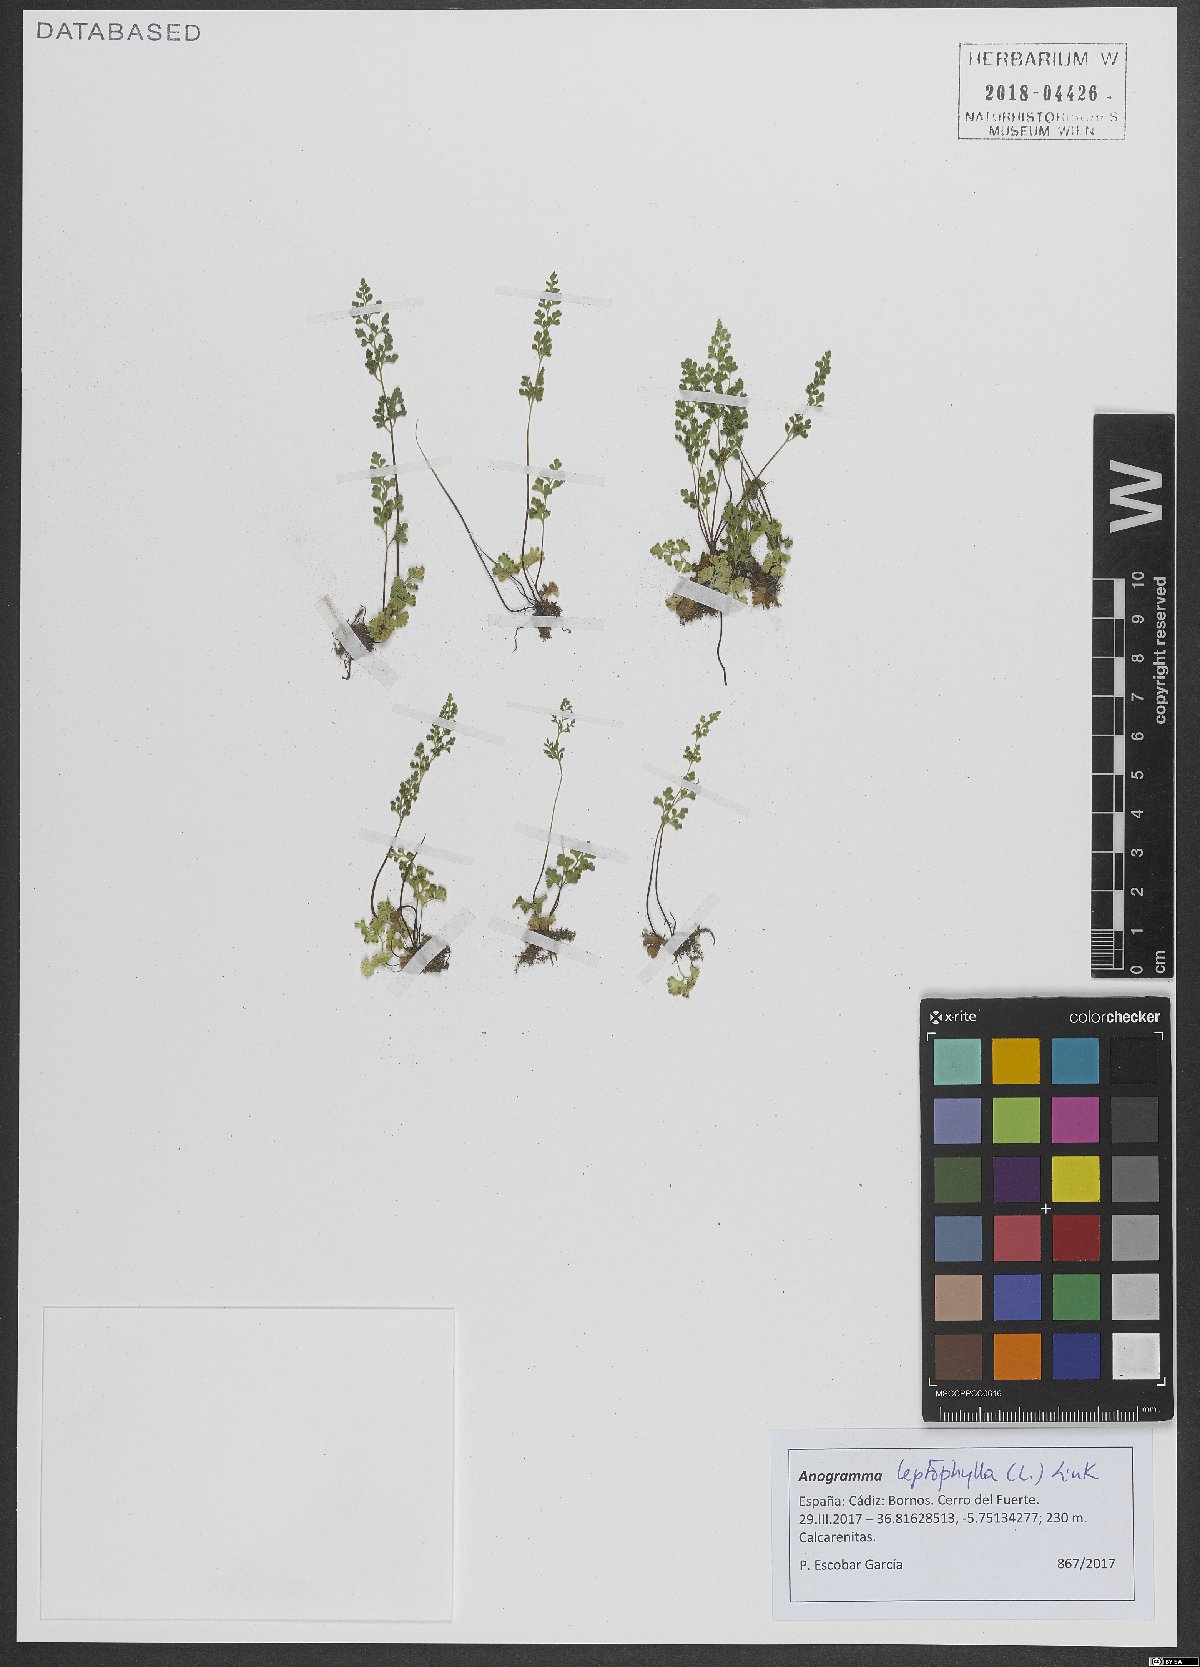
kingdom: Plantae
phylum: Tracheophyta
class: Polypodiopsida
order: Polypodiales
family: Pteridaceae
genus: Anogramma
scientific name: Anogramma leptophylla
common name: Jersey fern
